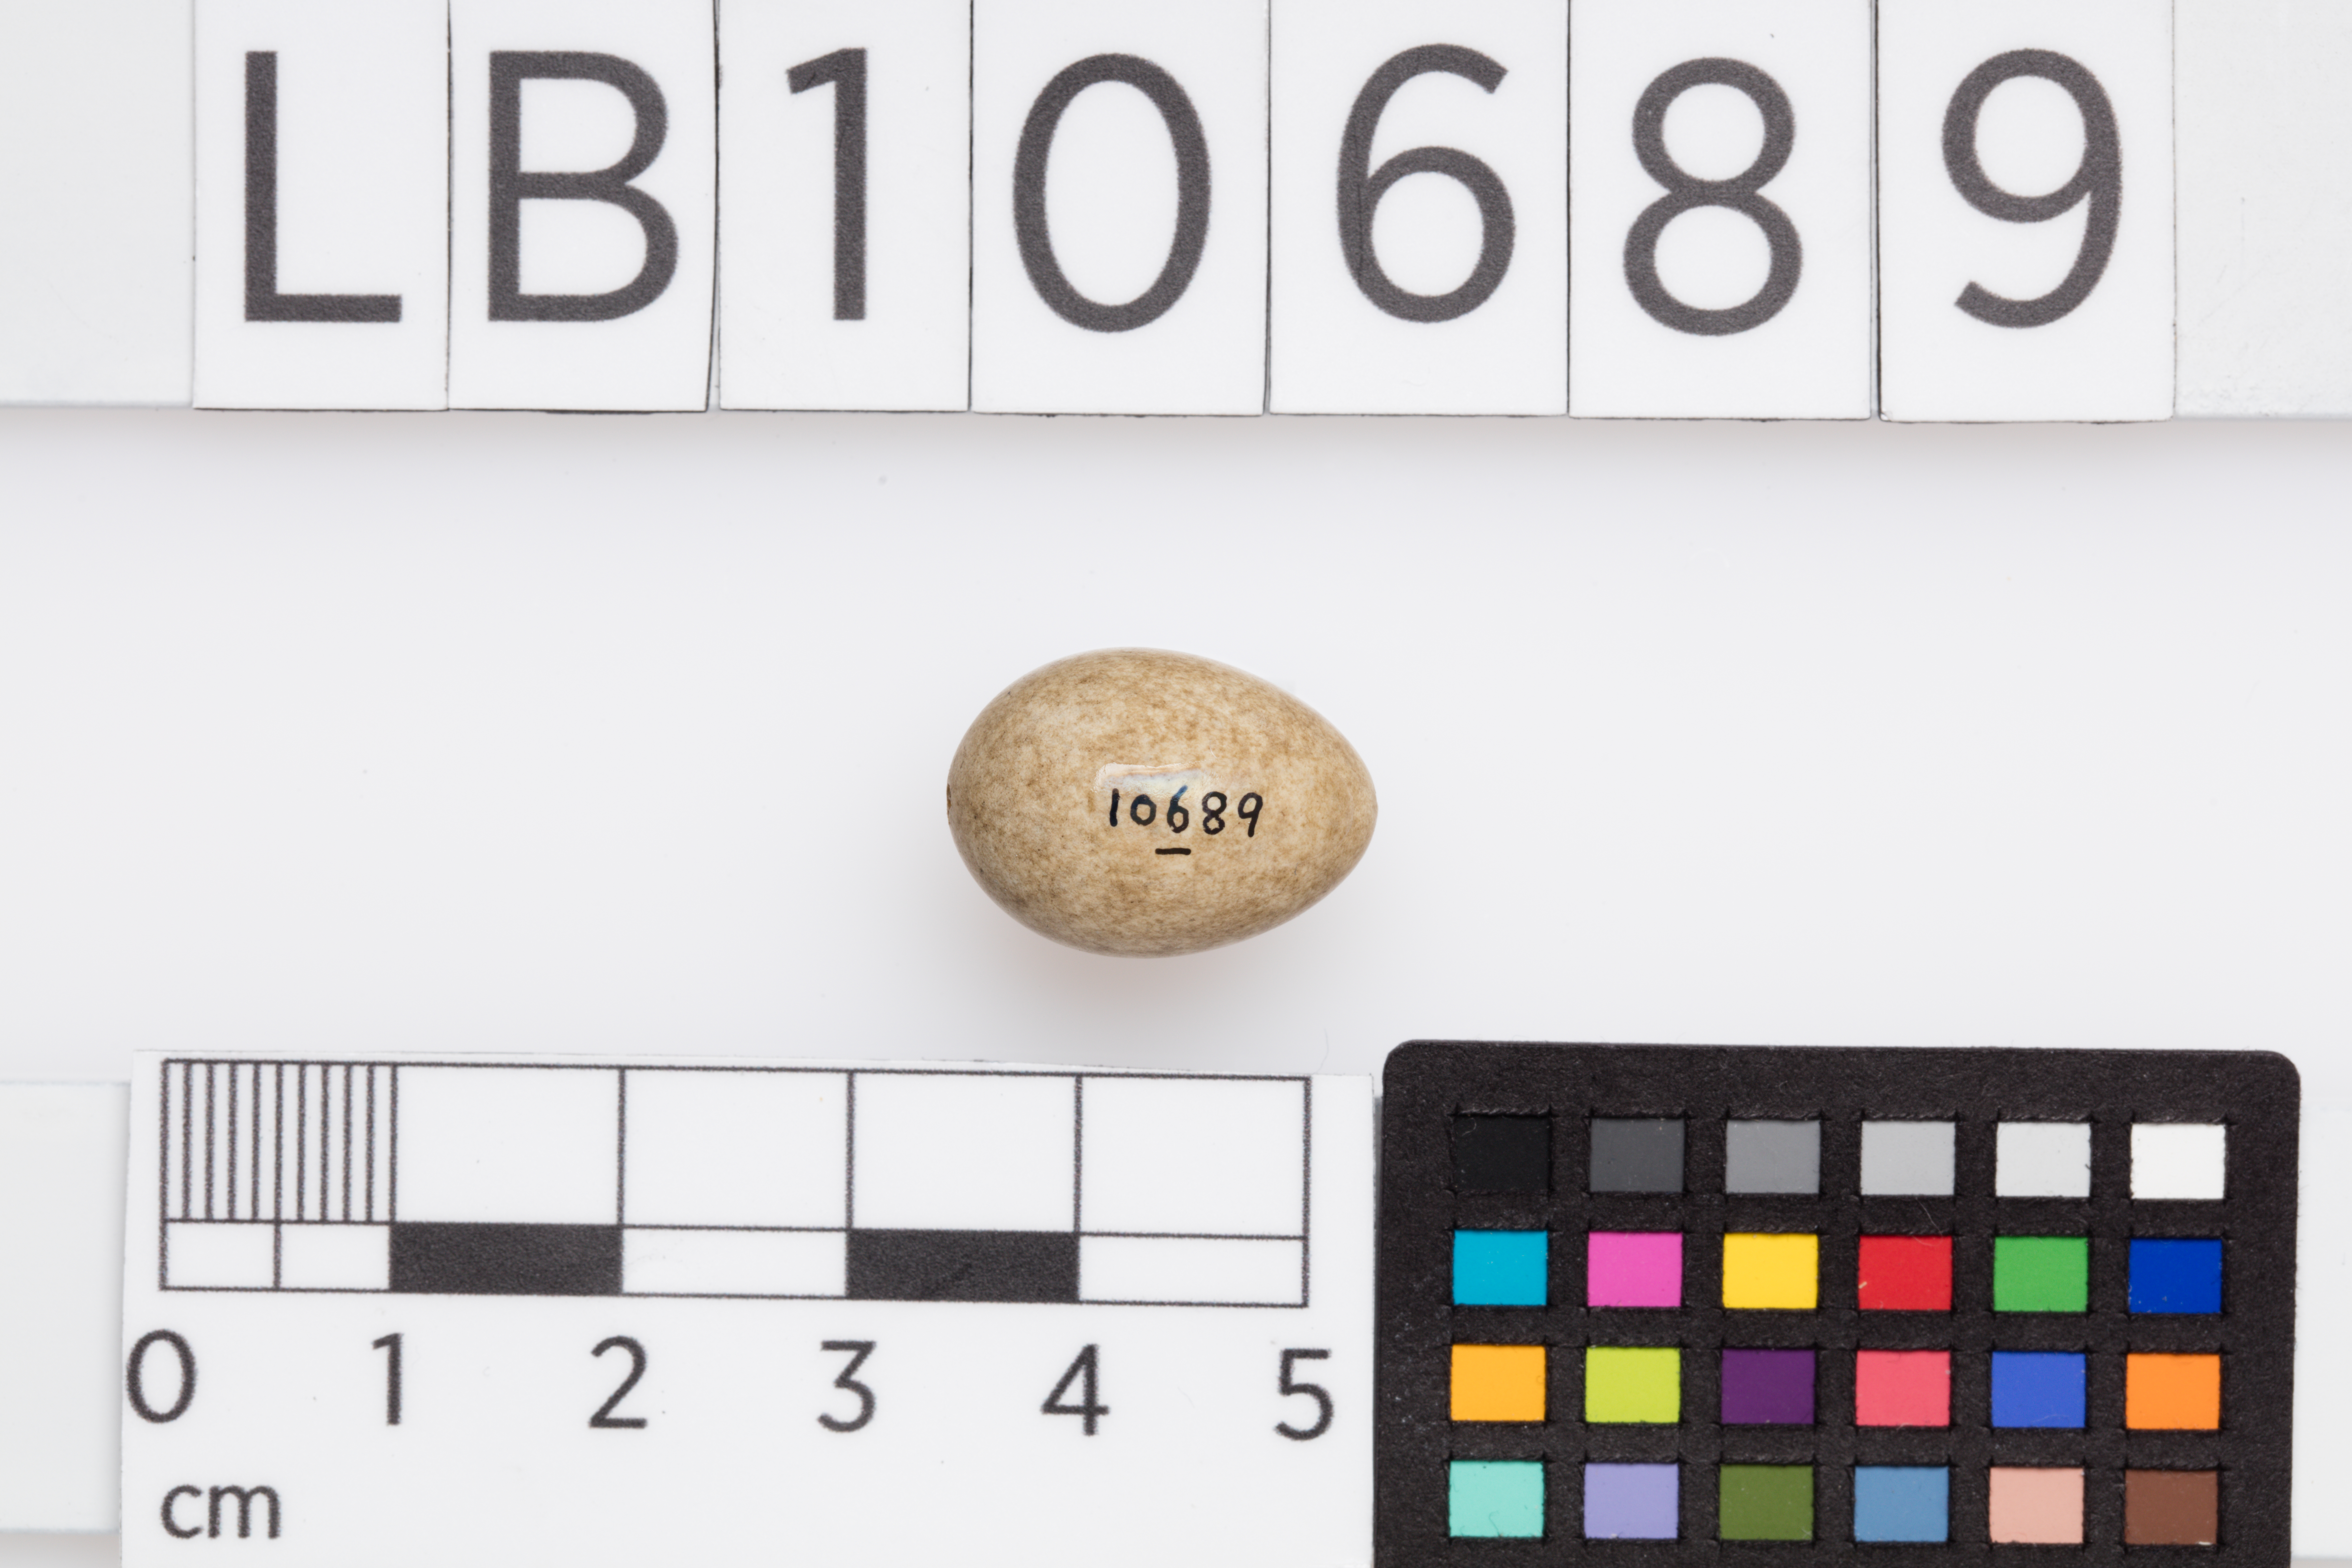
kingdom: Animalia
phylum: Chordata
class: Aves
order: Passeriformes
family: Acrocephalidae
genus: Acrocephalus
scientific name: Acrocephalus schoenobaenus
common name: Sedge warbler
